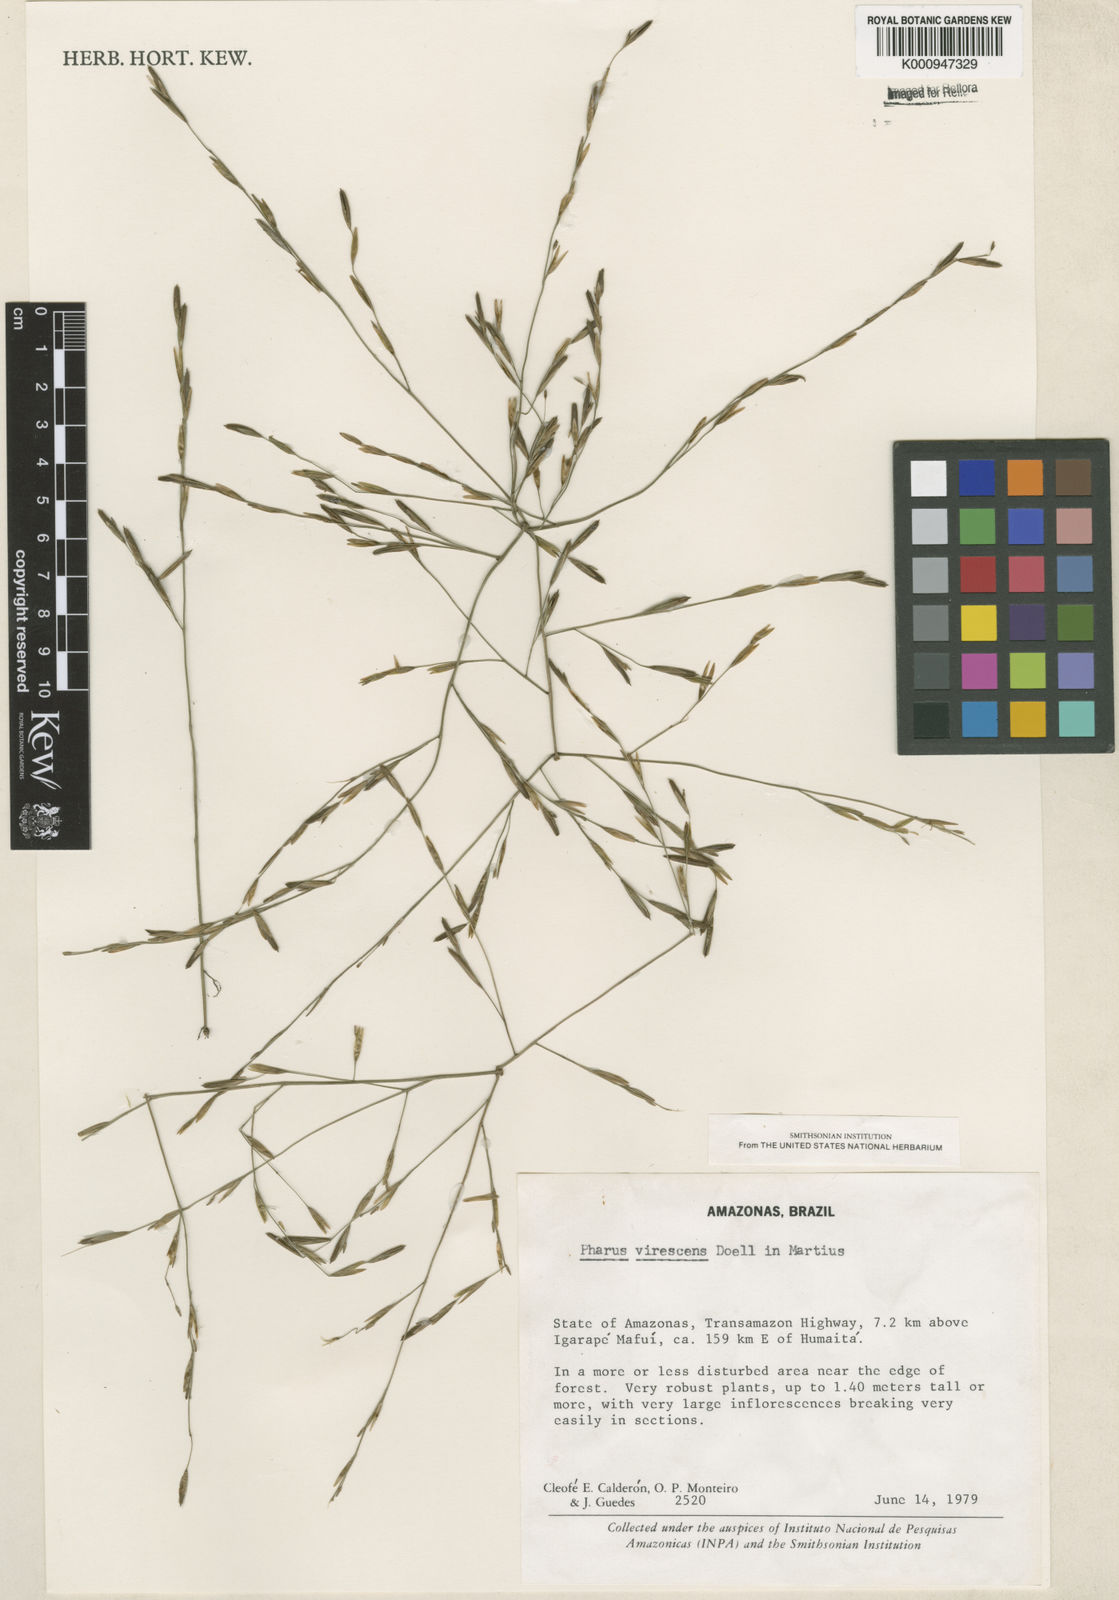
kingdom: Plantae
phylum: Tracheophyta
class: Liliopsida
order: Poales
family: Poaceae
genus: Pharus
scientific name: Pharus
